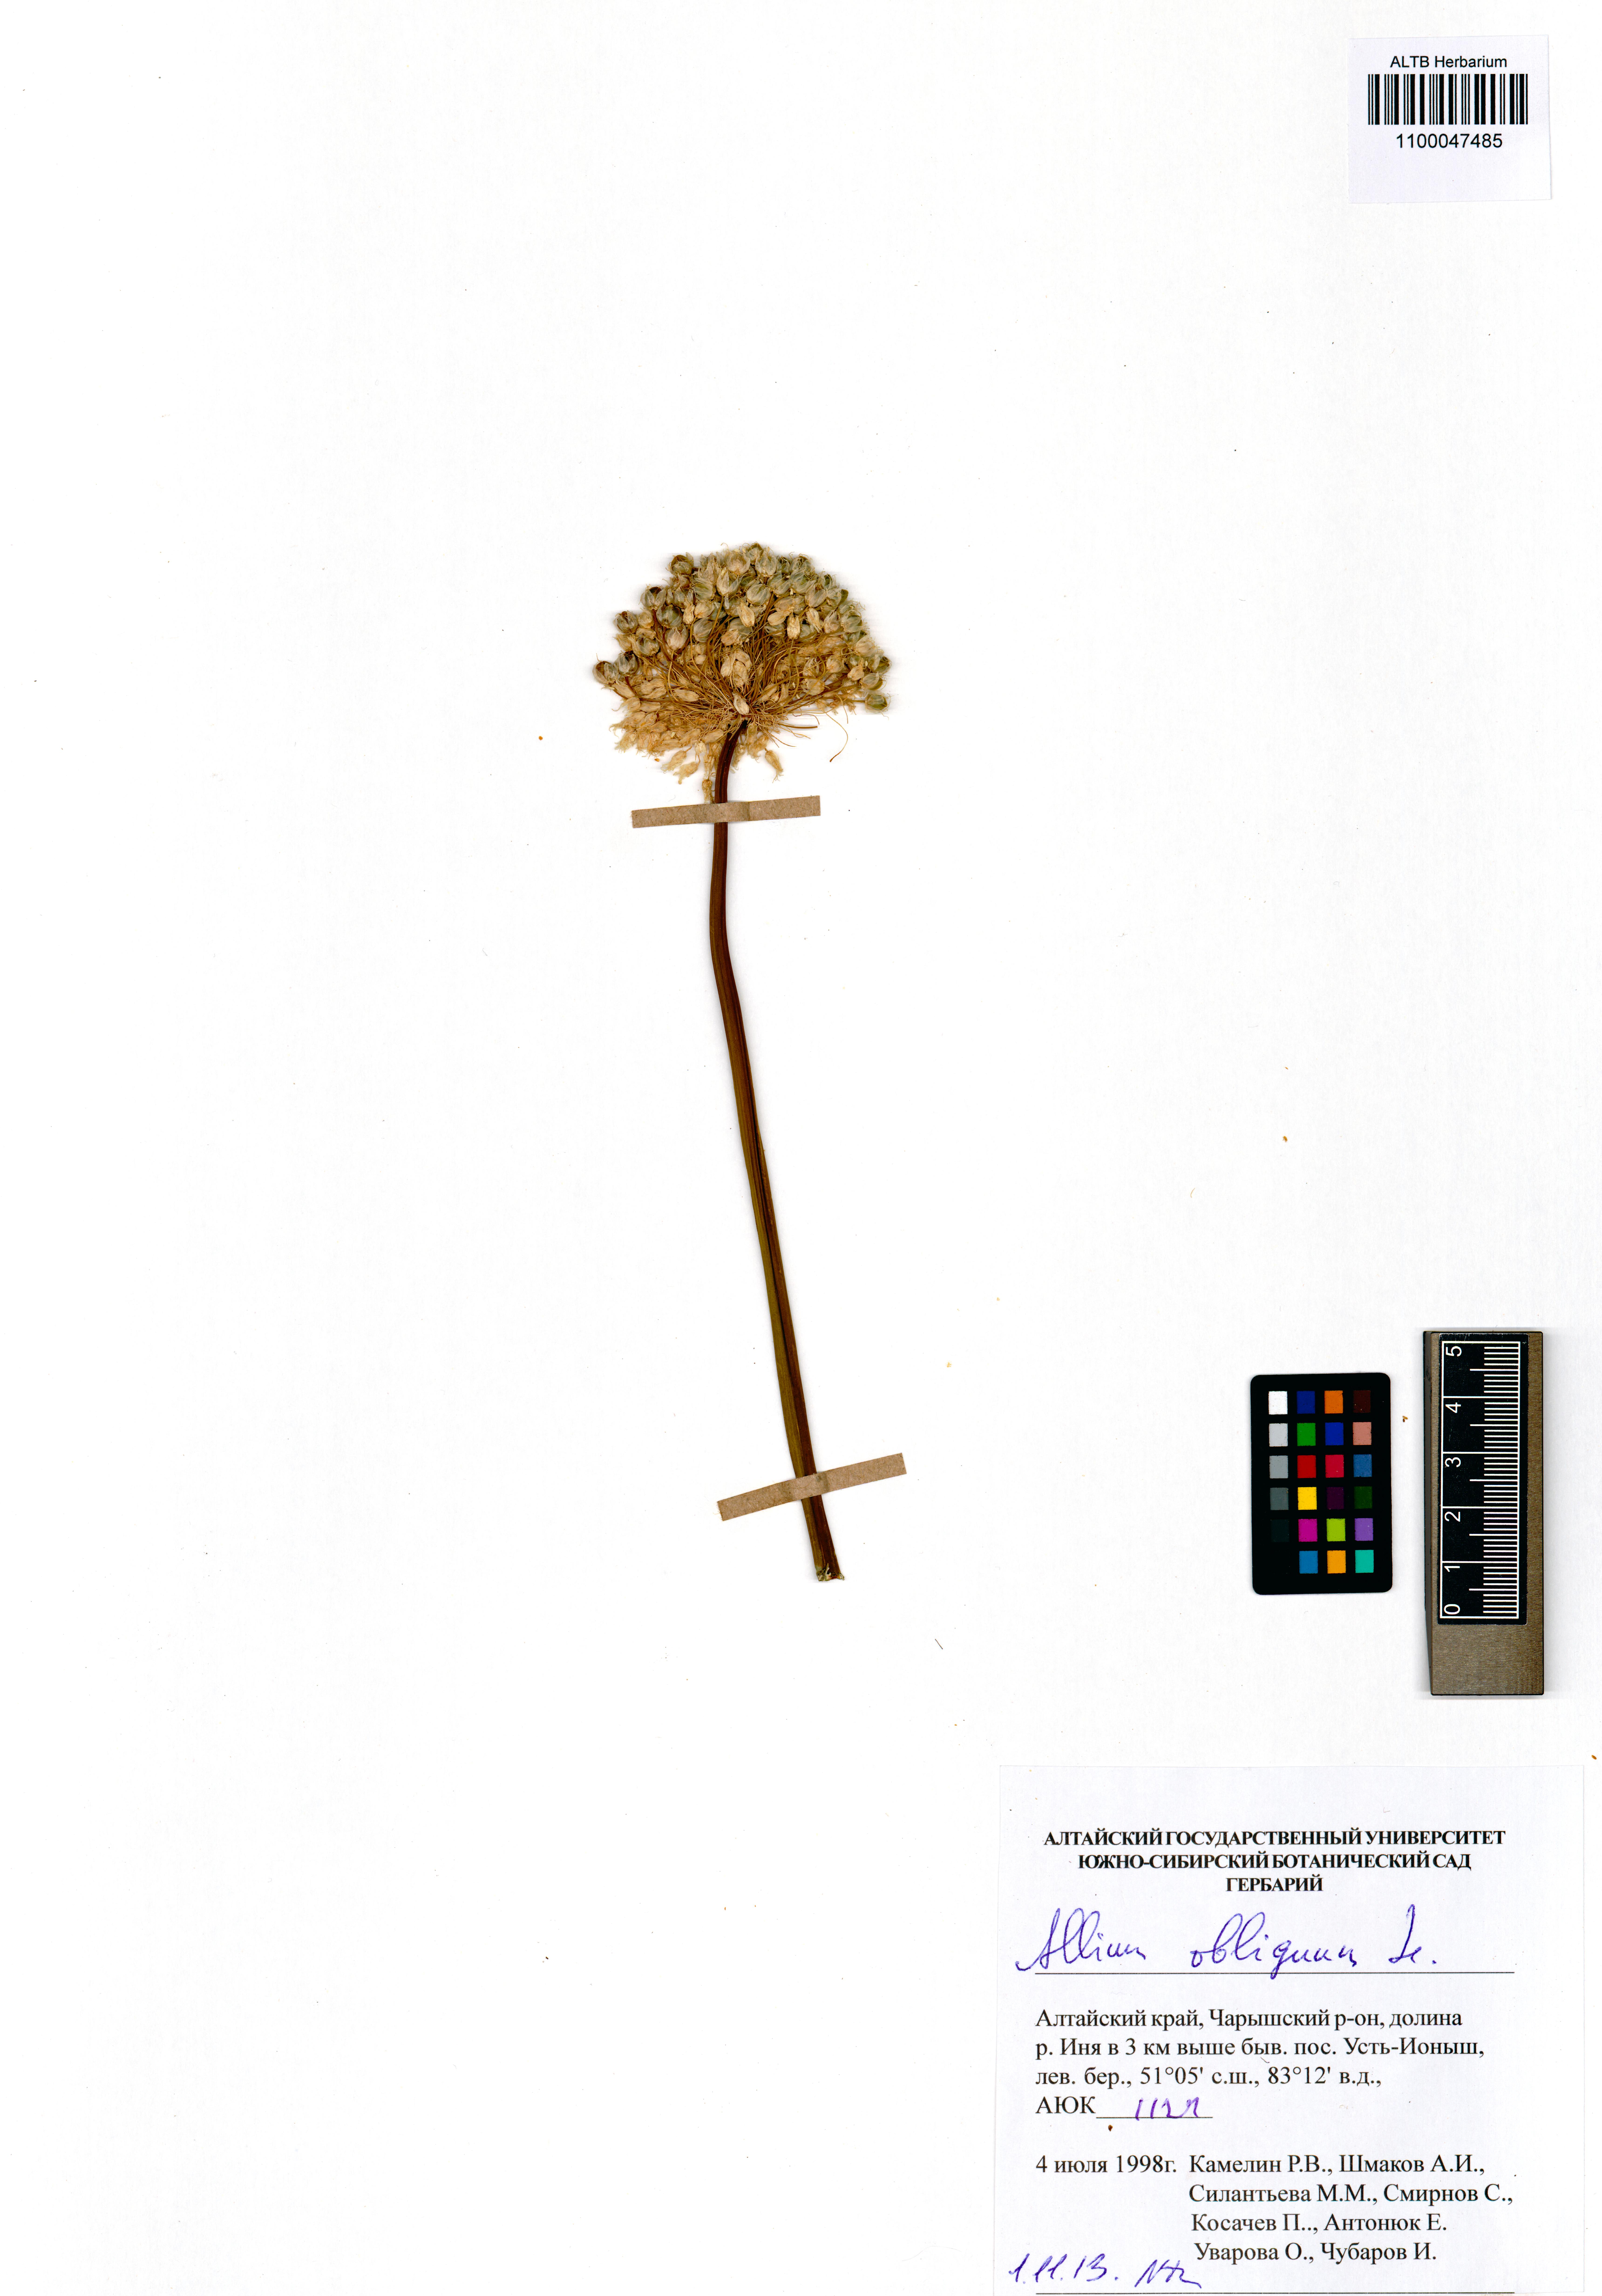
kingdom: Plantae
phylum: Tracheophyta
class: Liliopsida
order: Asparagales
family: Amaryllidaceae
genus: Allium
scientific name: Allium obliquum
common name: Oblique onion
